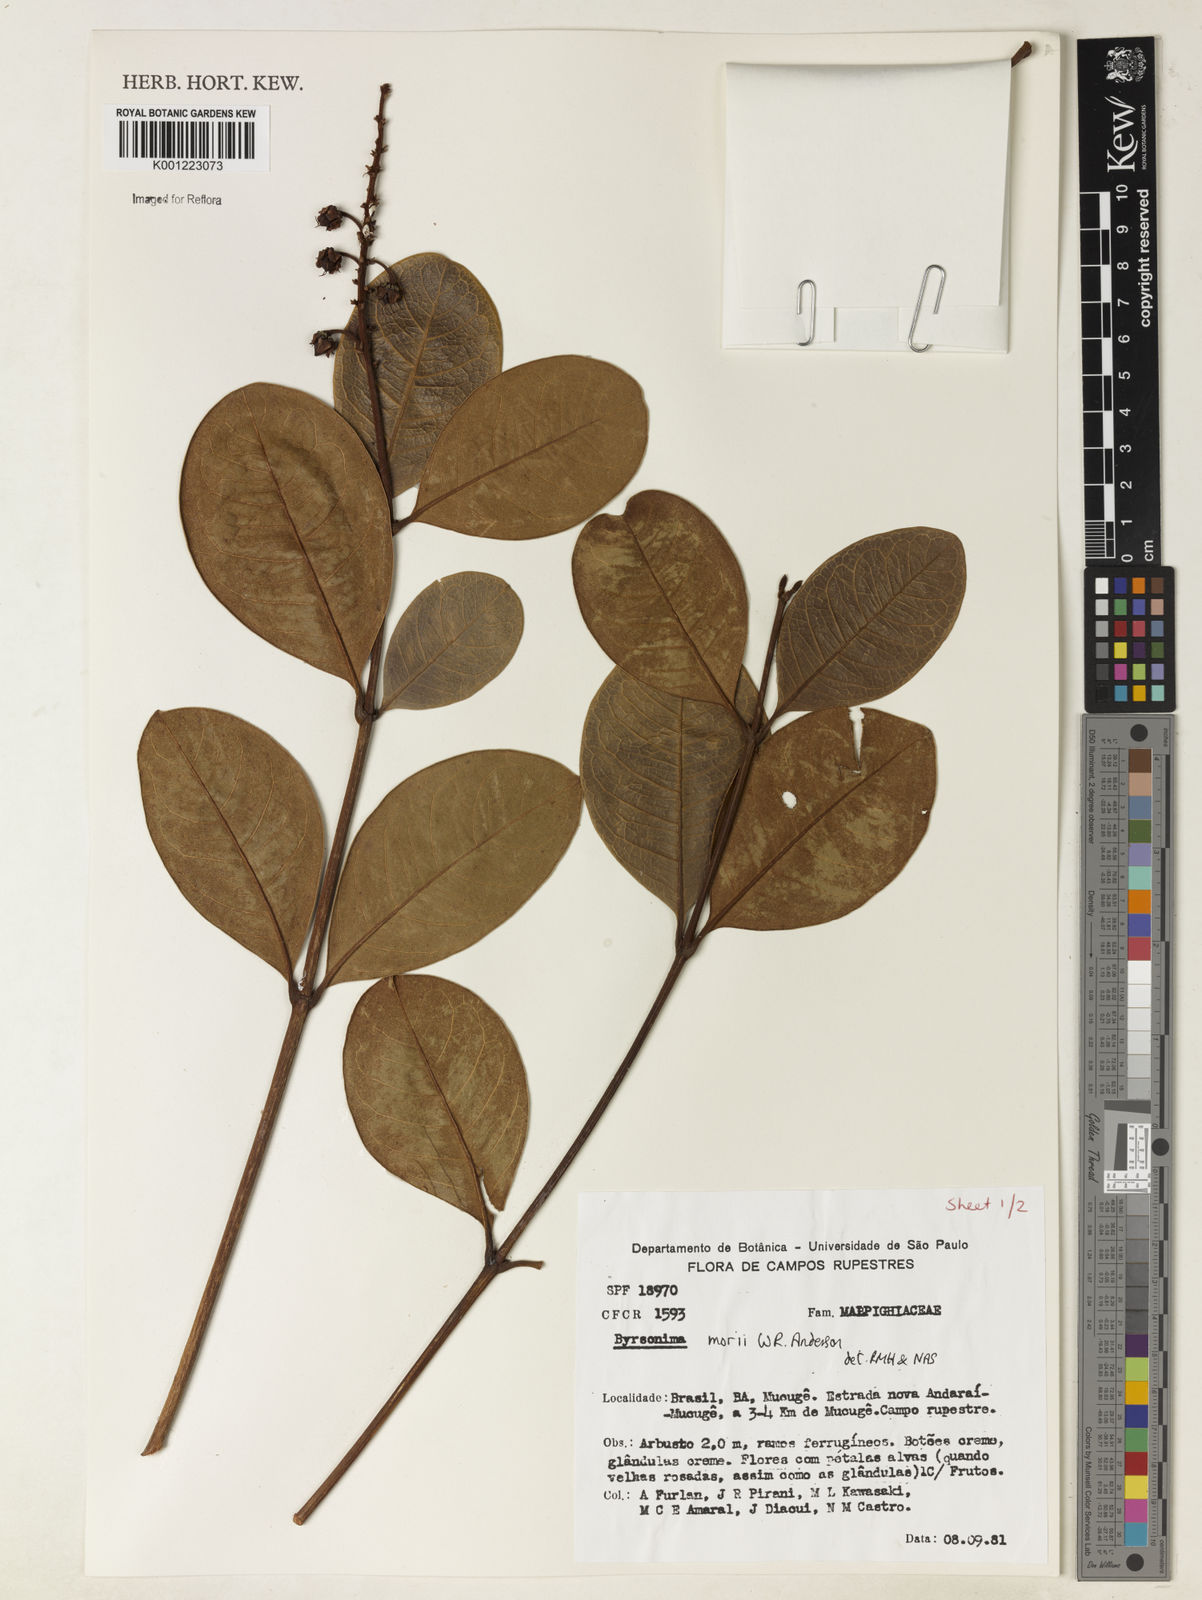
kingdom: Plantae
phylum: Tracheophyta
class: Magnoliopsida
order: Malpighiales
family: Malpighiaceae
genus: Byrsonima
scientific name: Byrsonima morii
